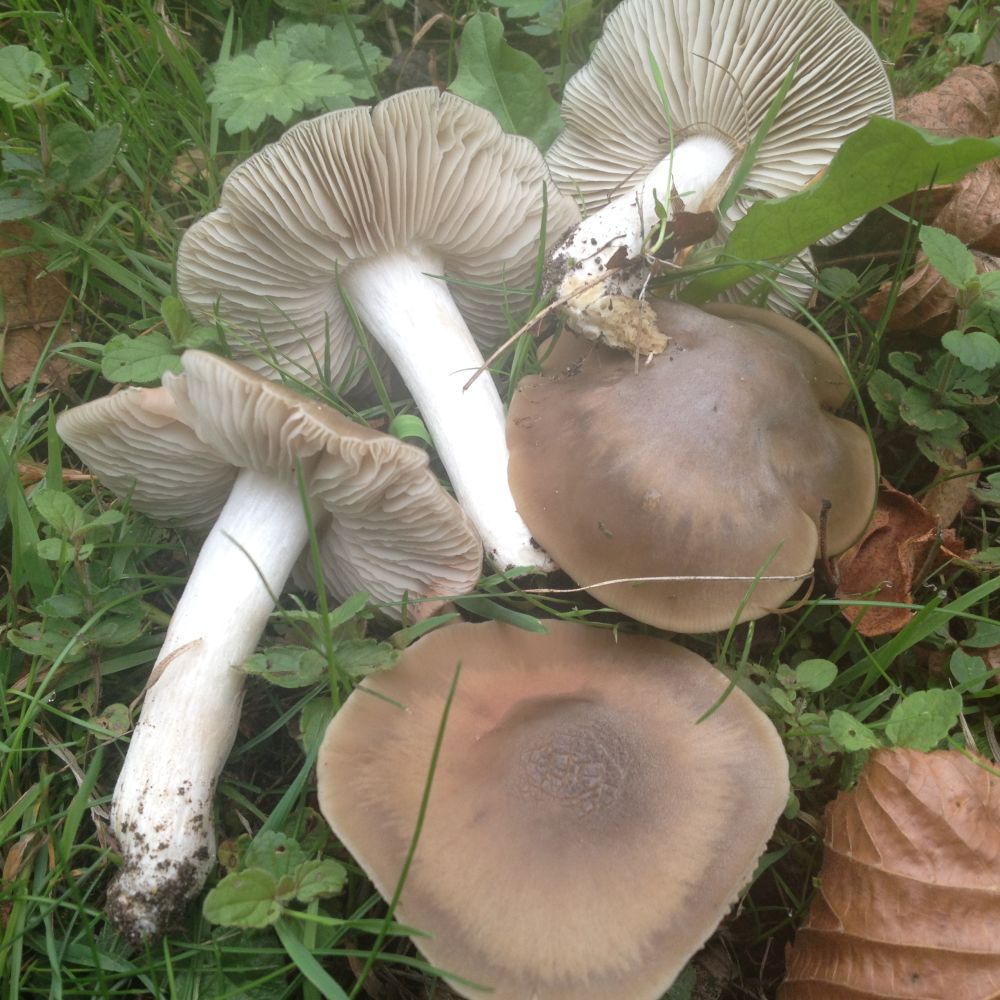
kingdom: Fungi
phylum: Basidiomycota
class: Agaricomycetes
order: Agaricales
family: Entolomataceae
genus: Entoloma
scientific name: Entoloma lividoalbum
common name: lysstokket rødblad
